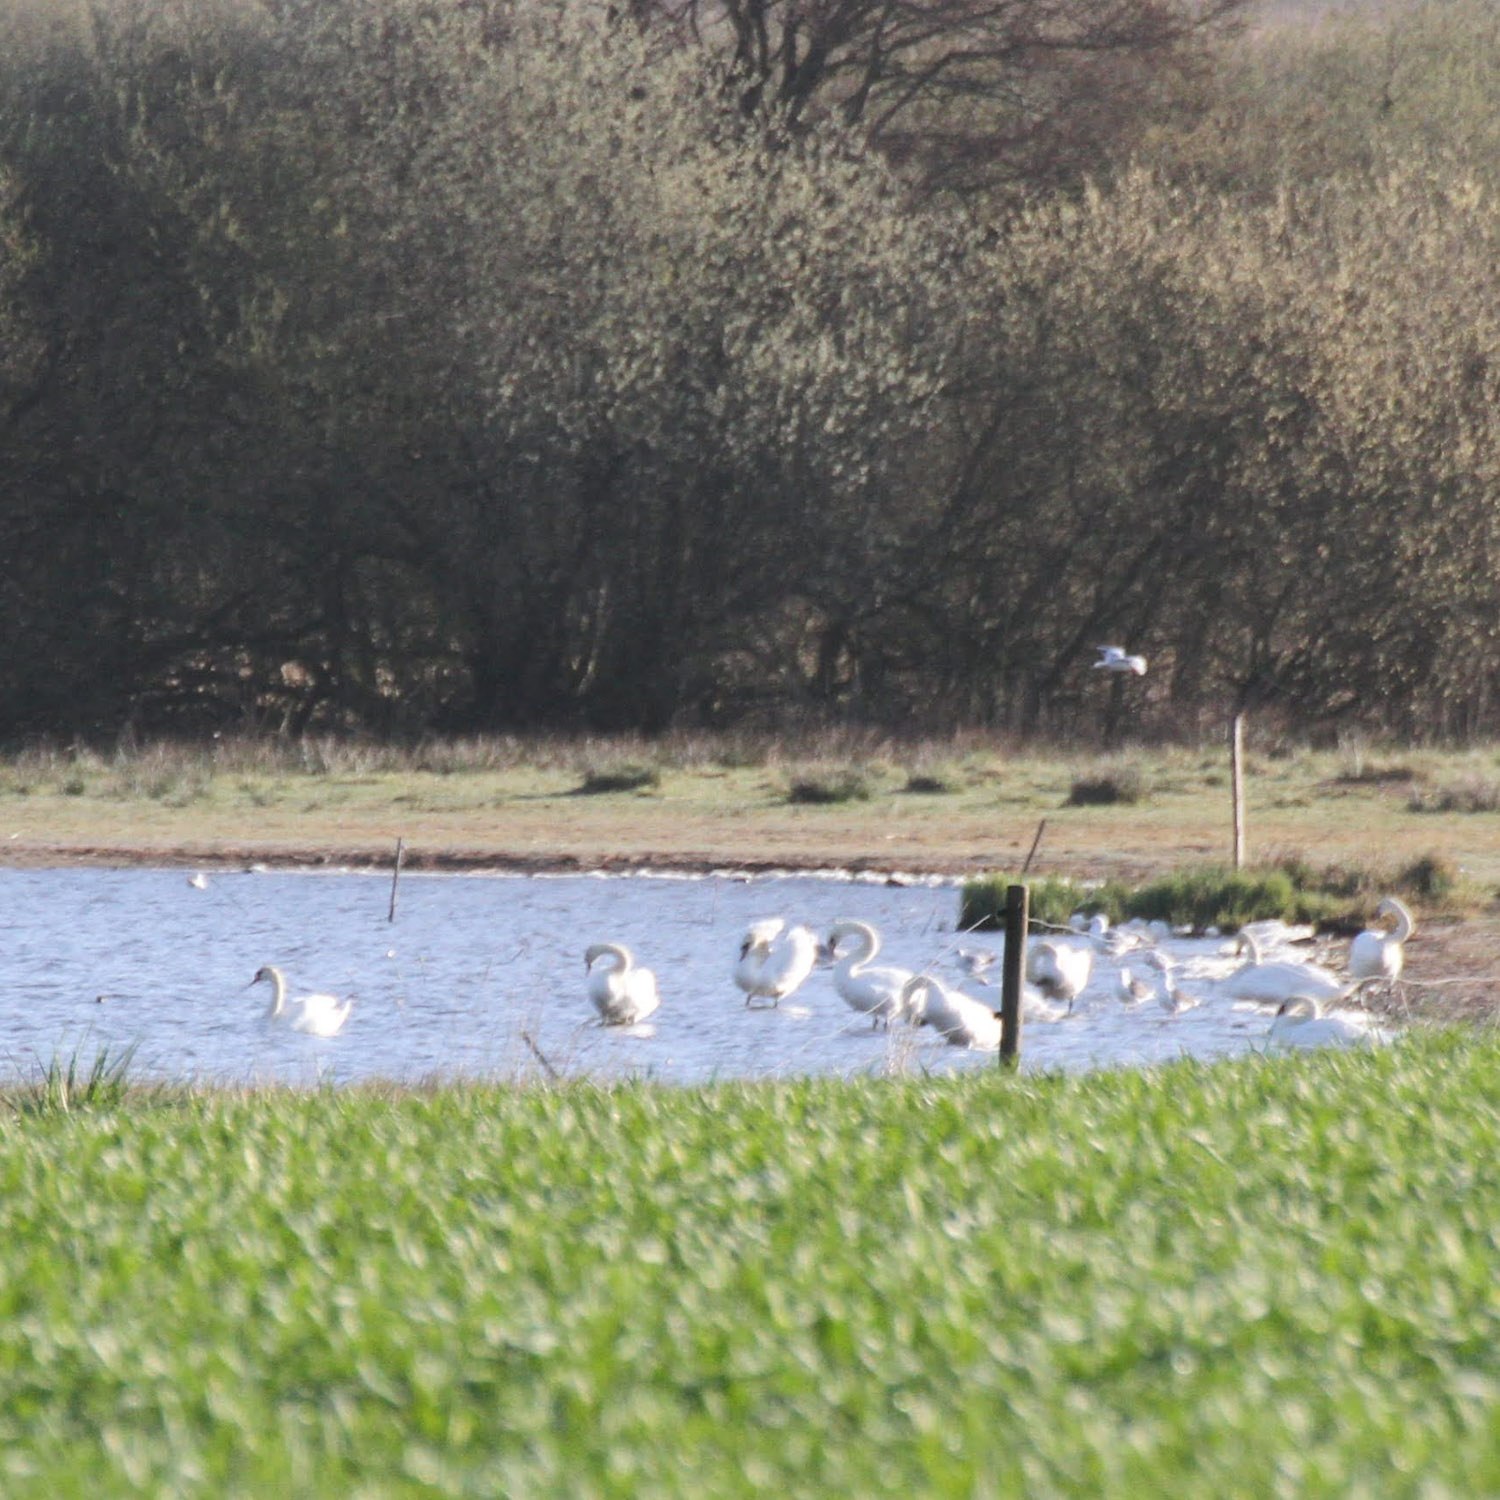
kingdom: Animalia
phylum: Chordata
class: Aves
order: Anseriformes
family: Anatidae
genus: Cygnus
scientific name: Cygnus olor
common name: Knopsvane
